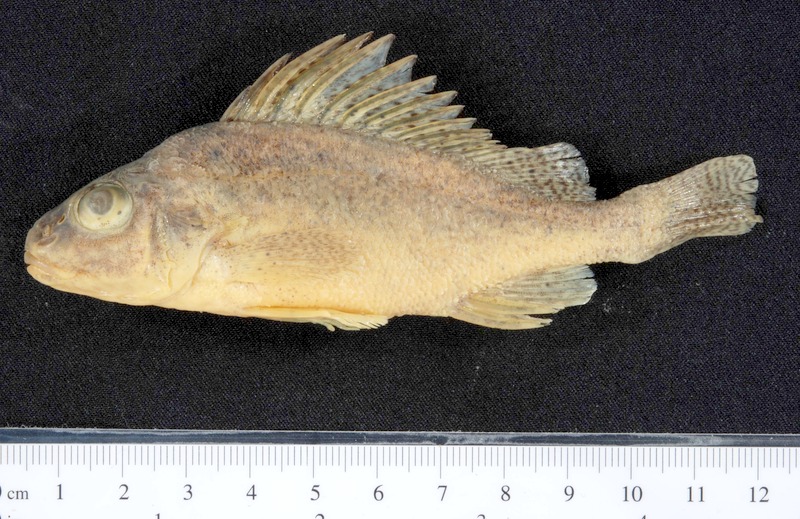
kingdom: Animalia
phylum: Chordata
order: Perciformes
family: Percidae
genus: Gymnocephalus
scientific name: Gymnocephalus baloni
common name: Balon's ruffe
